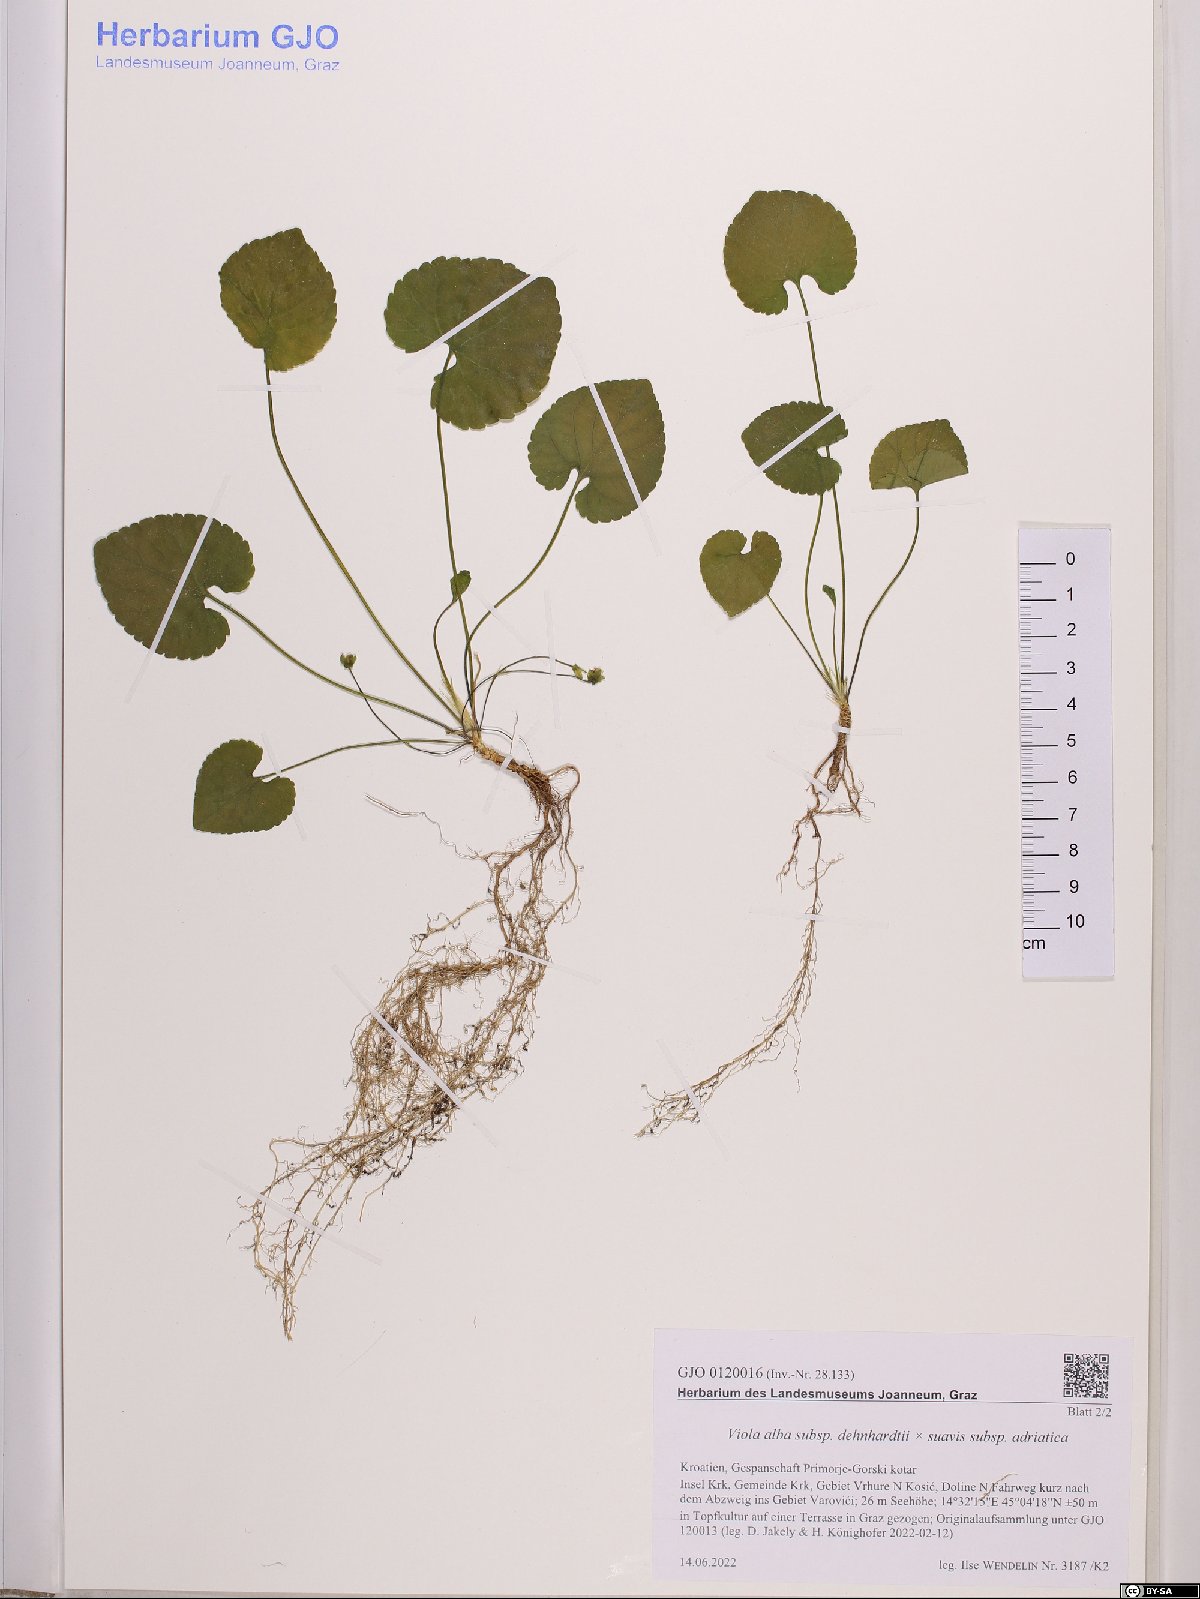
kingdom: Plantae
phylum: Tracheophyta
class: Magnoliopsida
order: Malpighiales
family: Violaceae
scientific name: Violaceae
